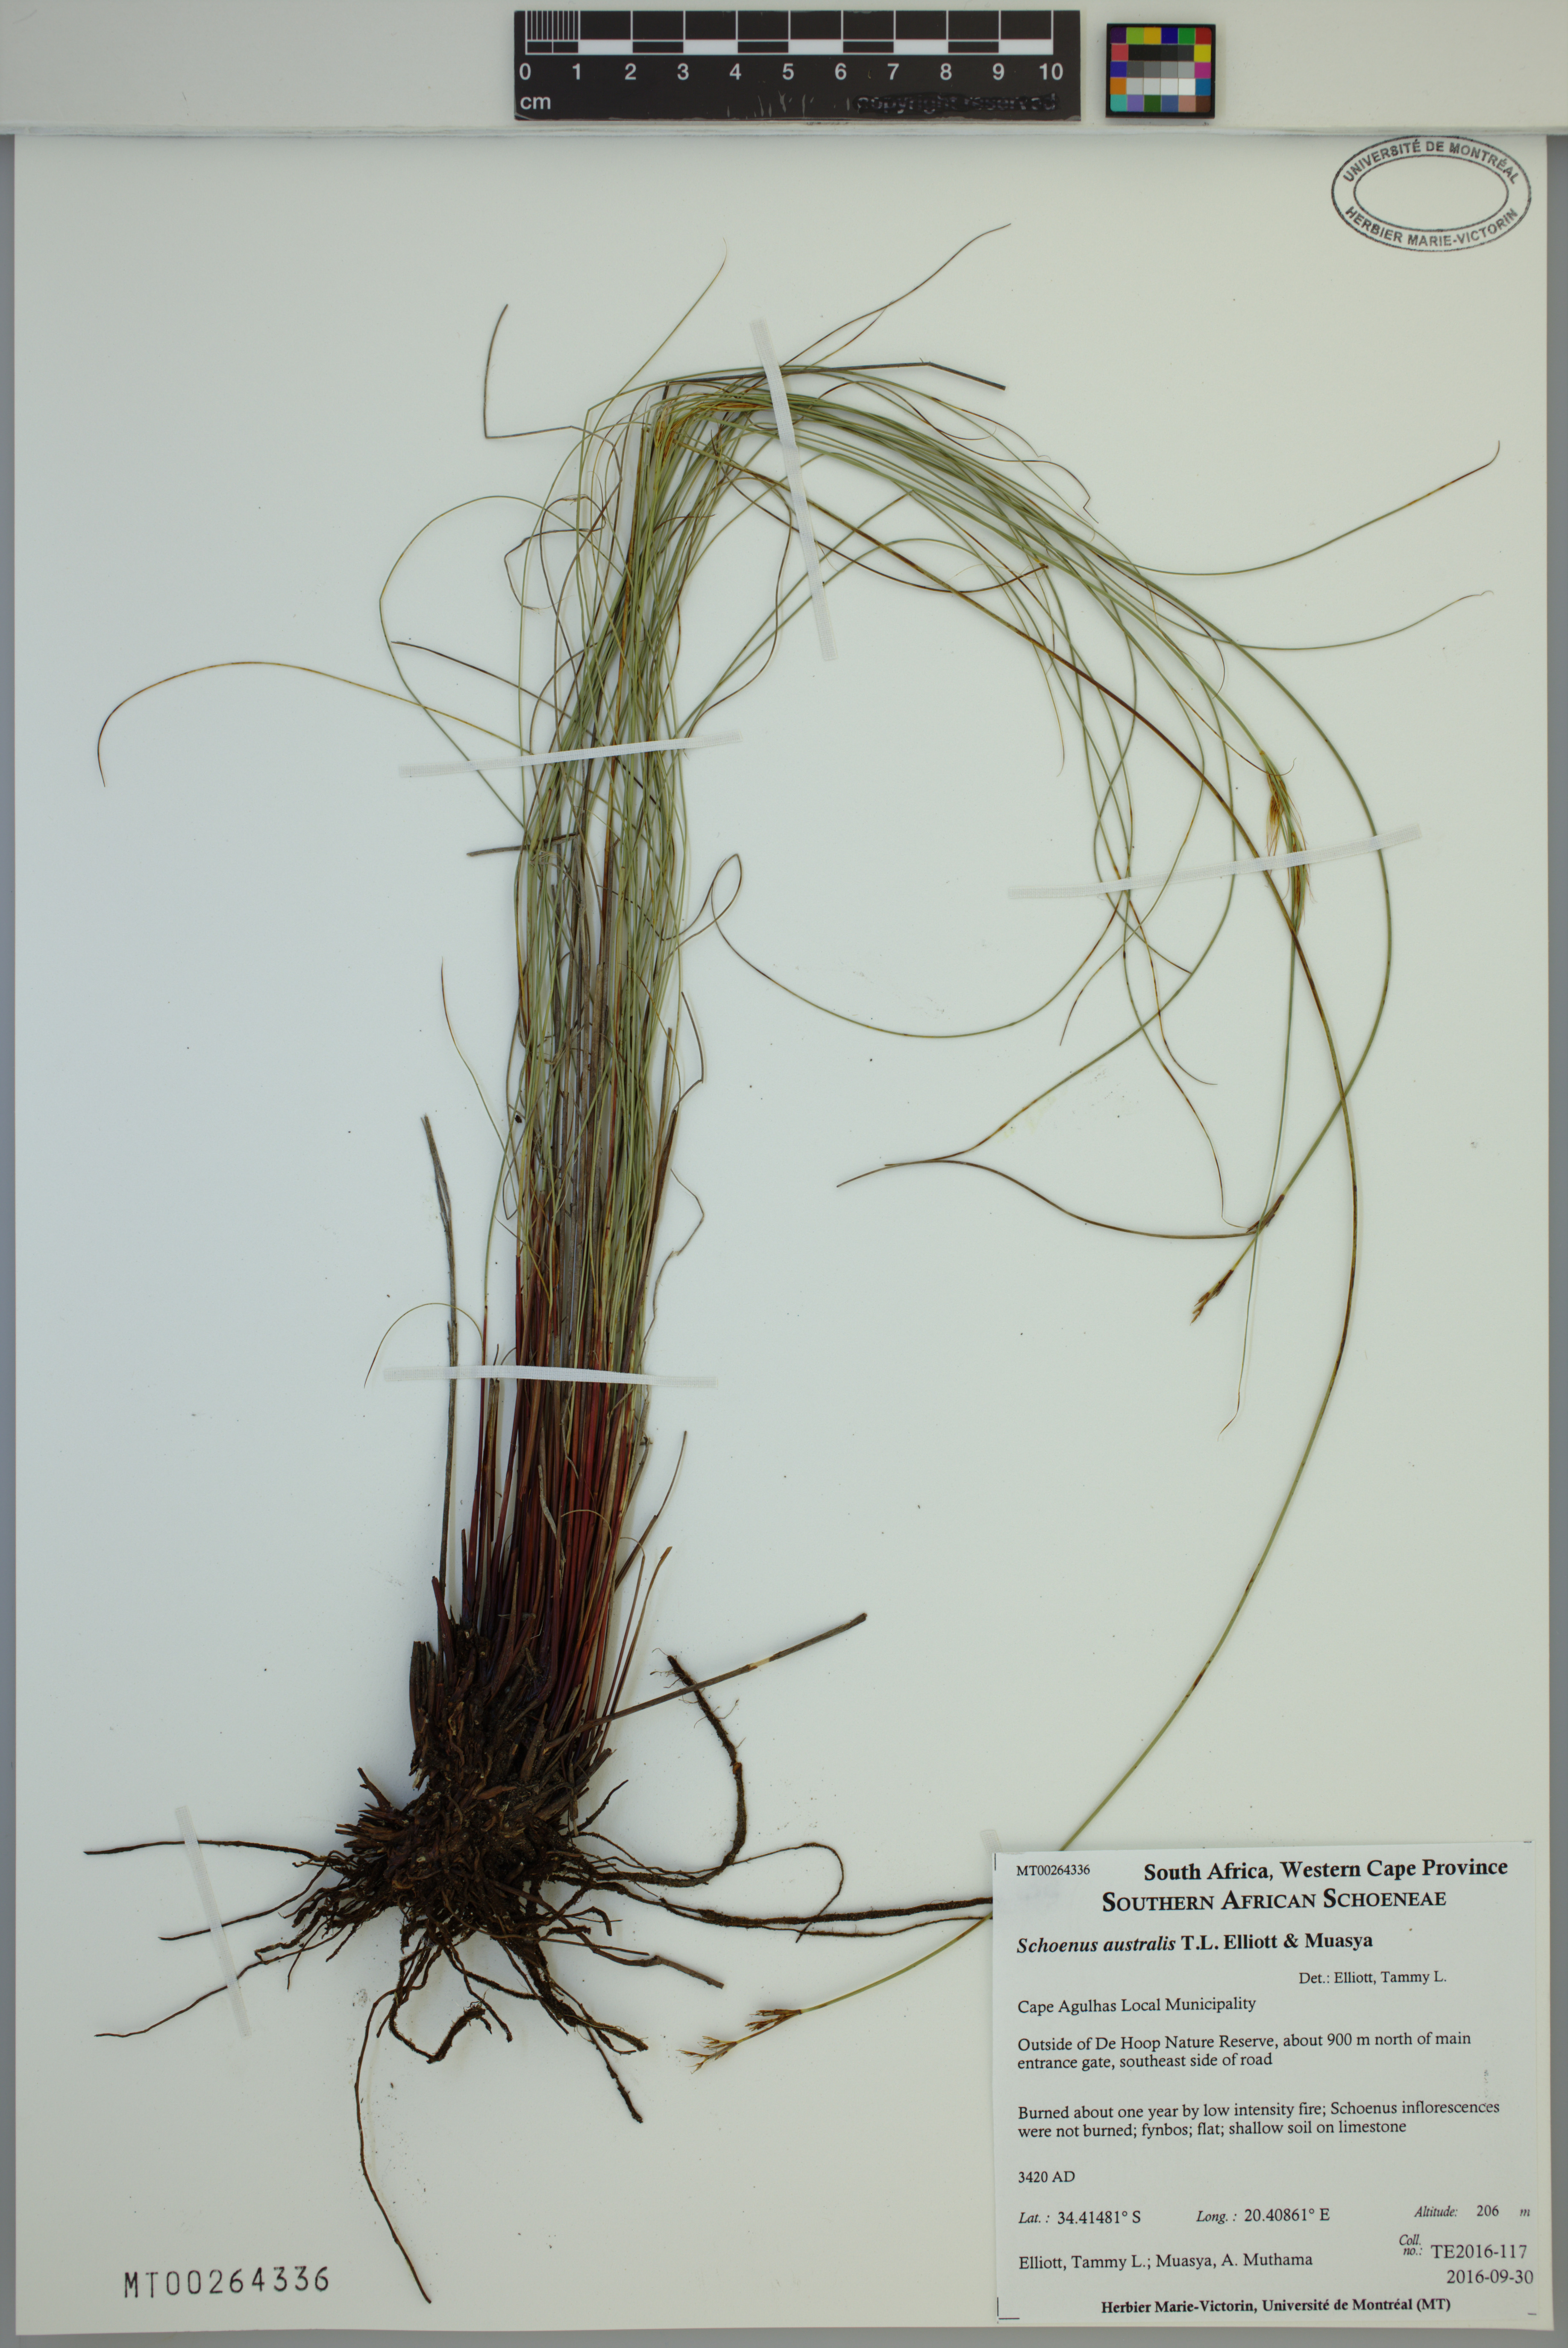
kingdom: Plantae
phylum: Tracheophyta
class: Liliopsida
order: Poales
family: Cyperaceae
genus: Schoenus
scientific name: Schoenus australis
